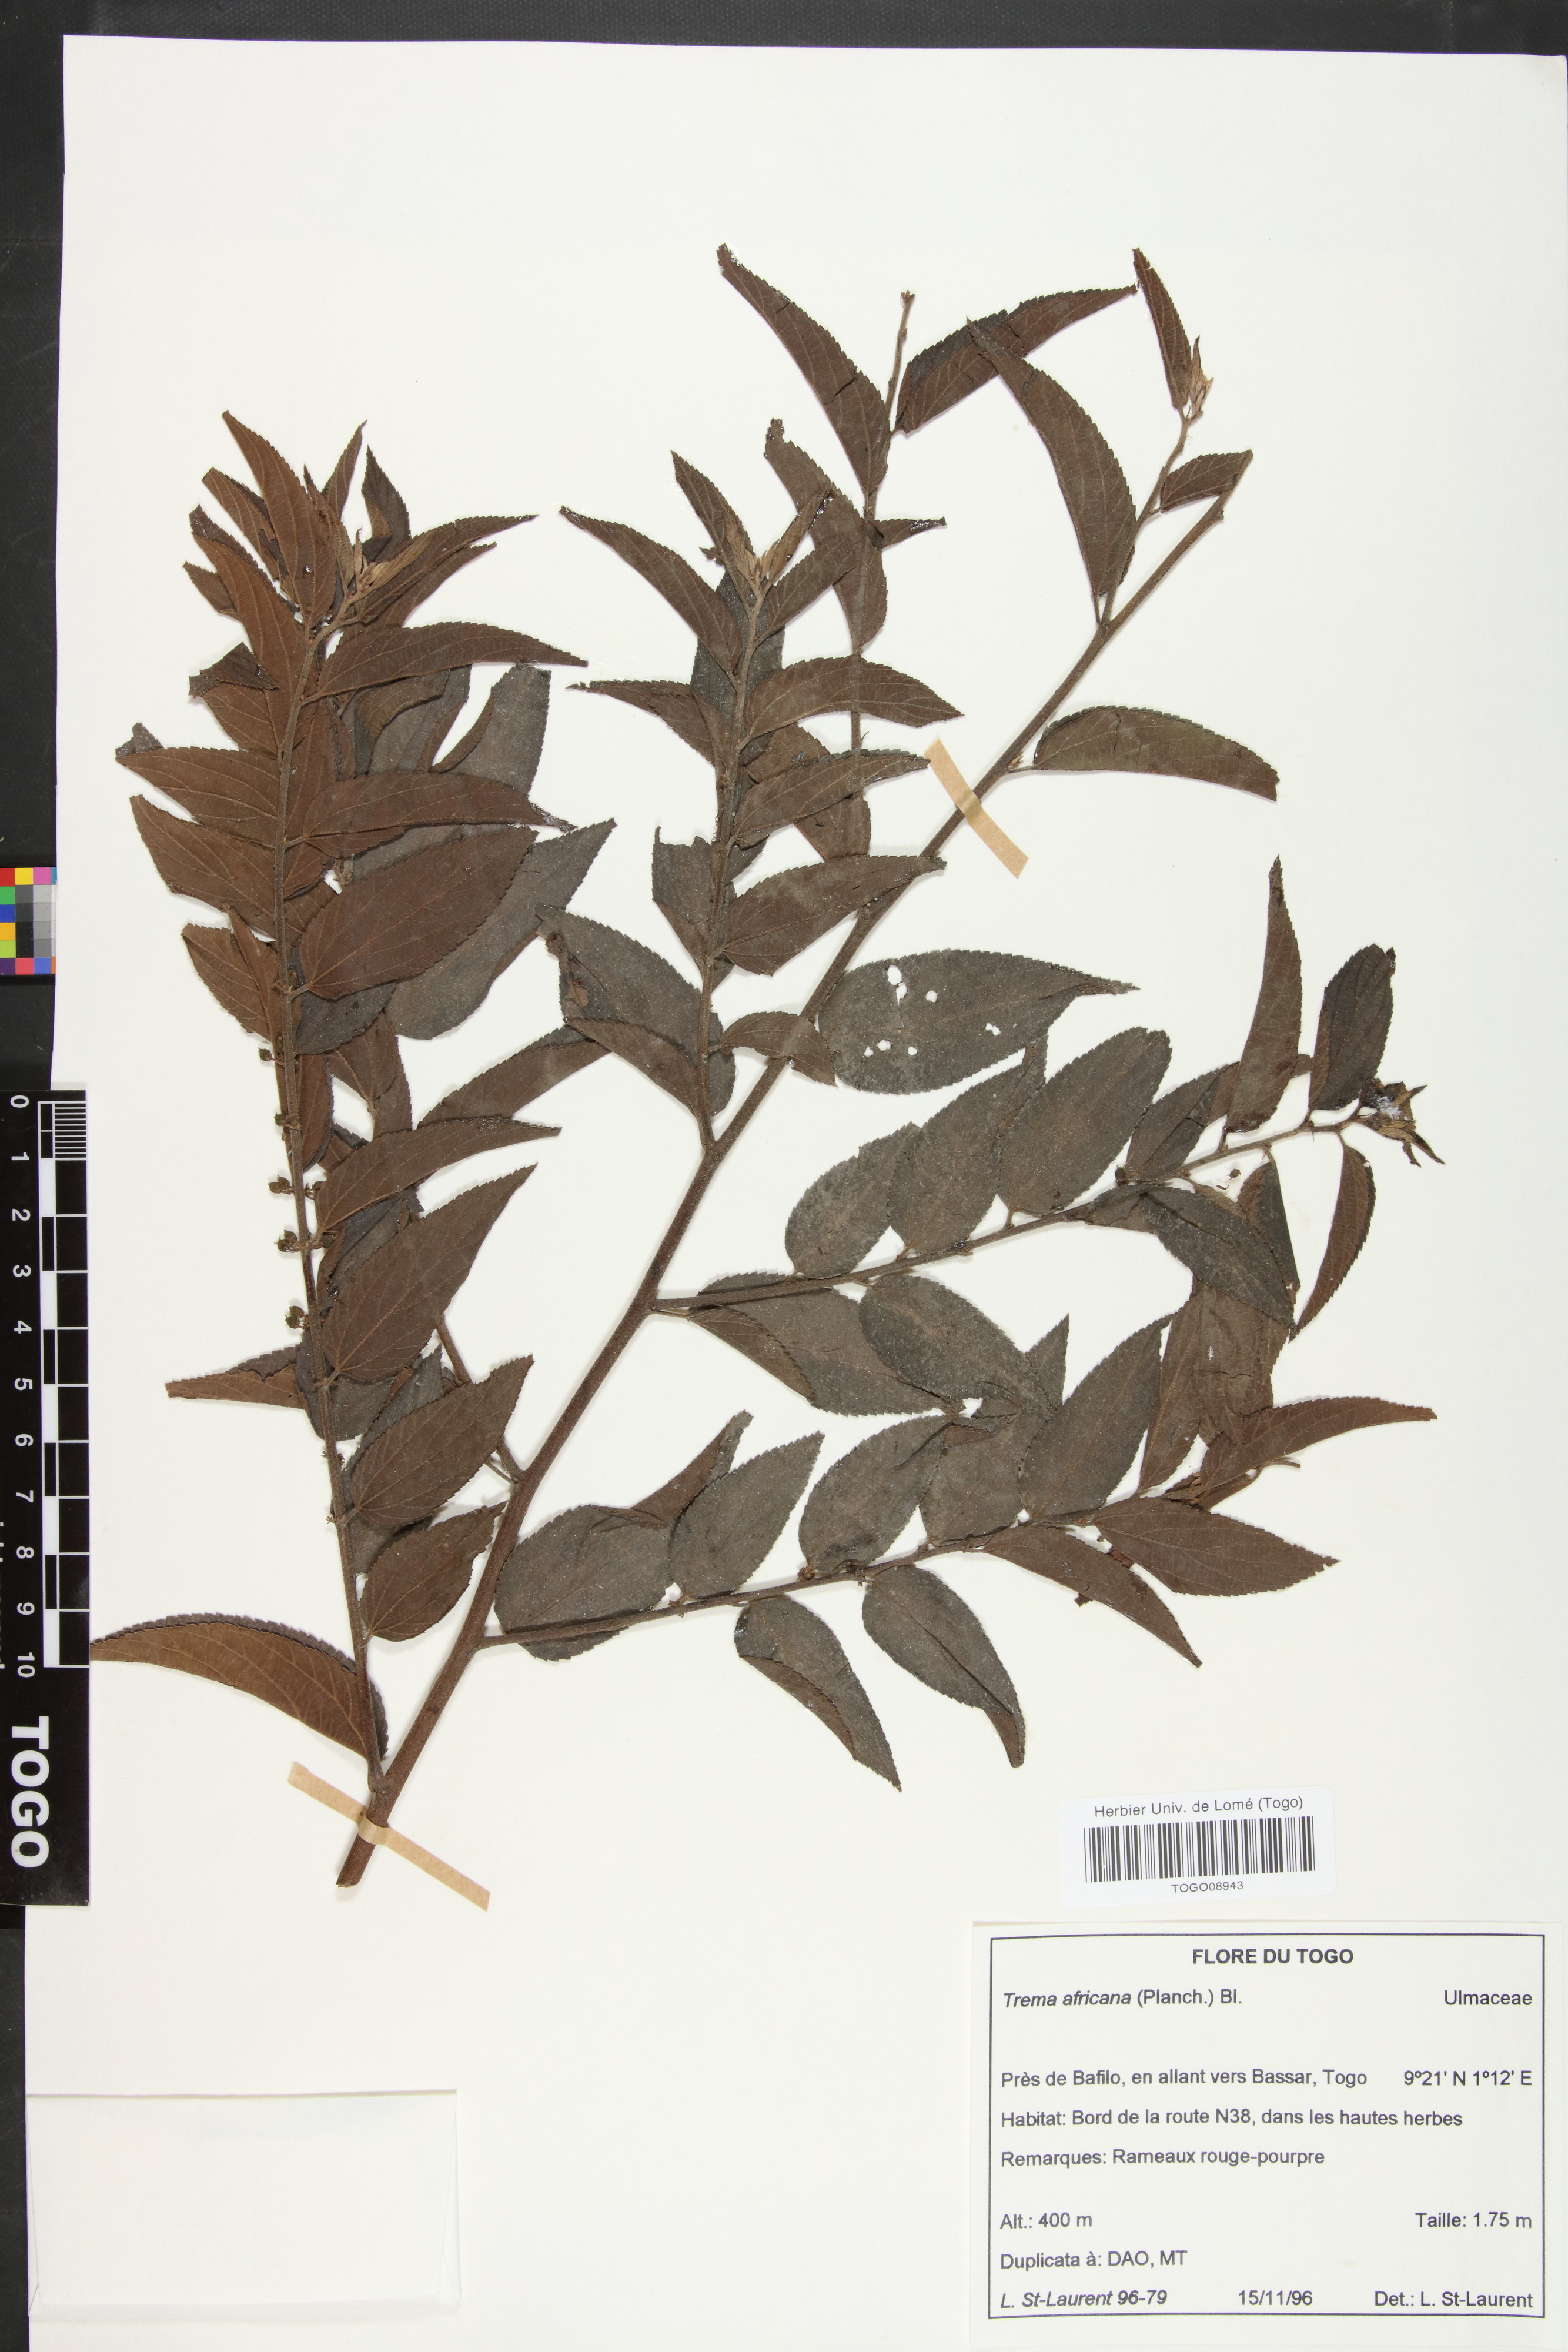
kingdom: Plantae
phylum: Tracheophyta
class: Magnoliopsida
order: Rosales
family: Cannabaceae
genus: Trema
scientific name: Trema orientale
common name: Indian charcoal tree
